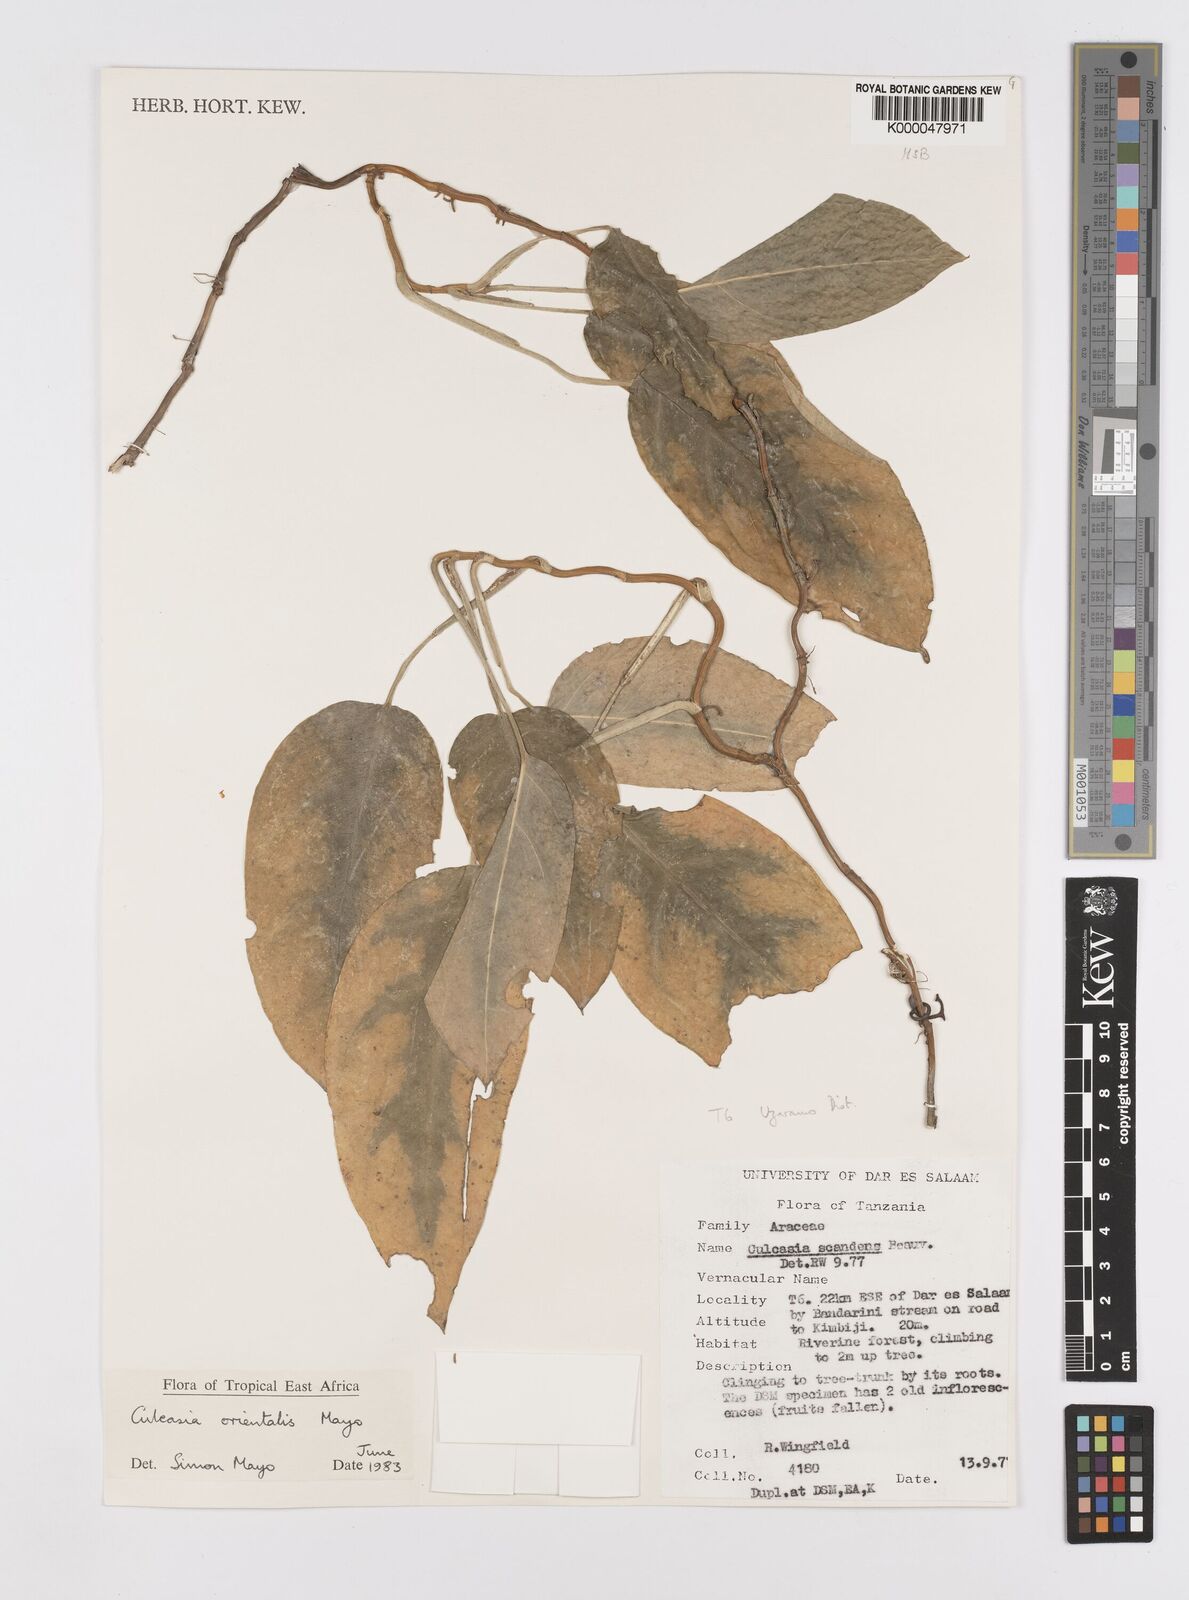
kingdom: Plantae
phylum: Tracheophyta
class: Liliopsida
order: Alismatales
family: Araceae
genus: Culcasia
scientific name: Culcasia orientalis
